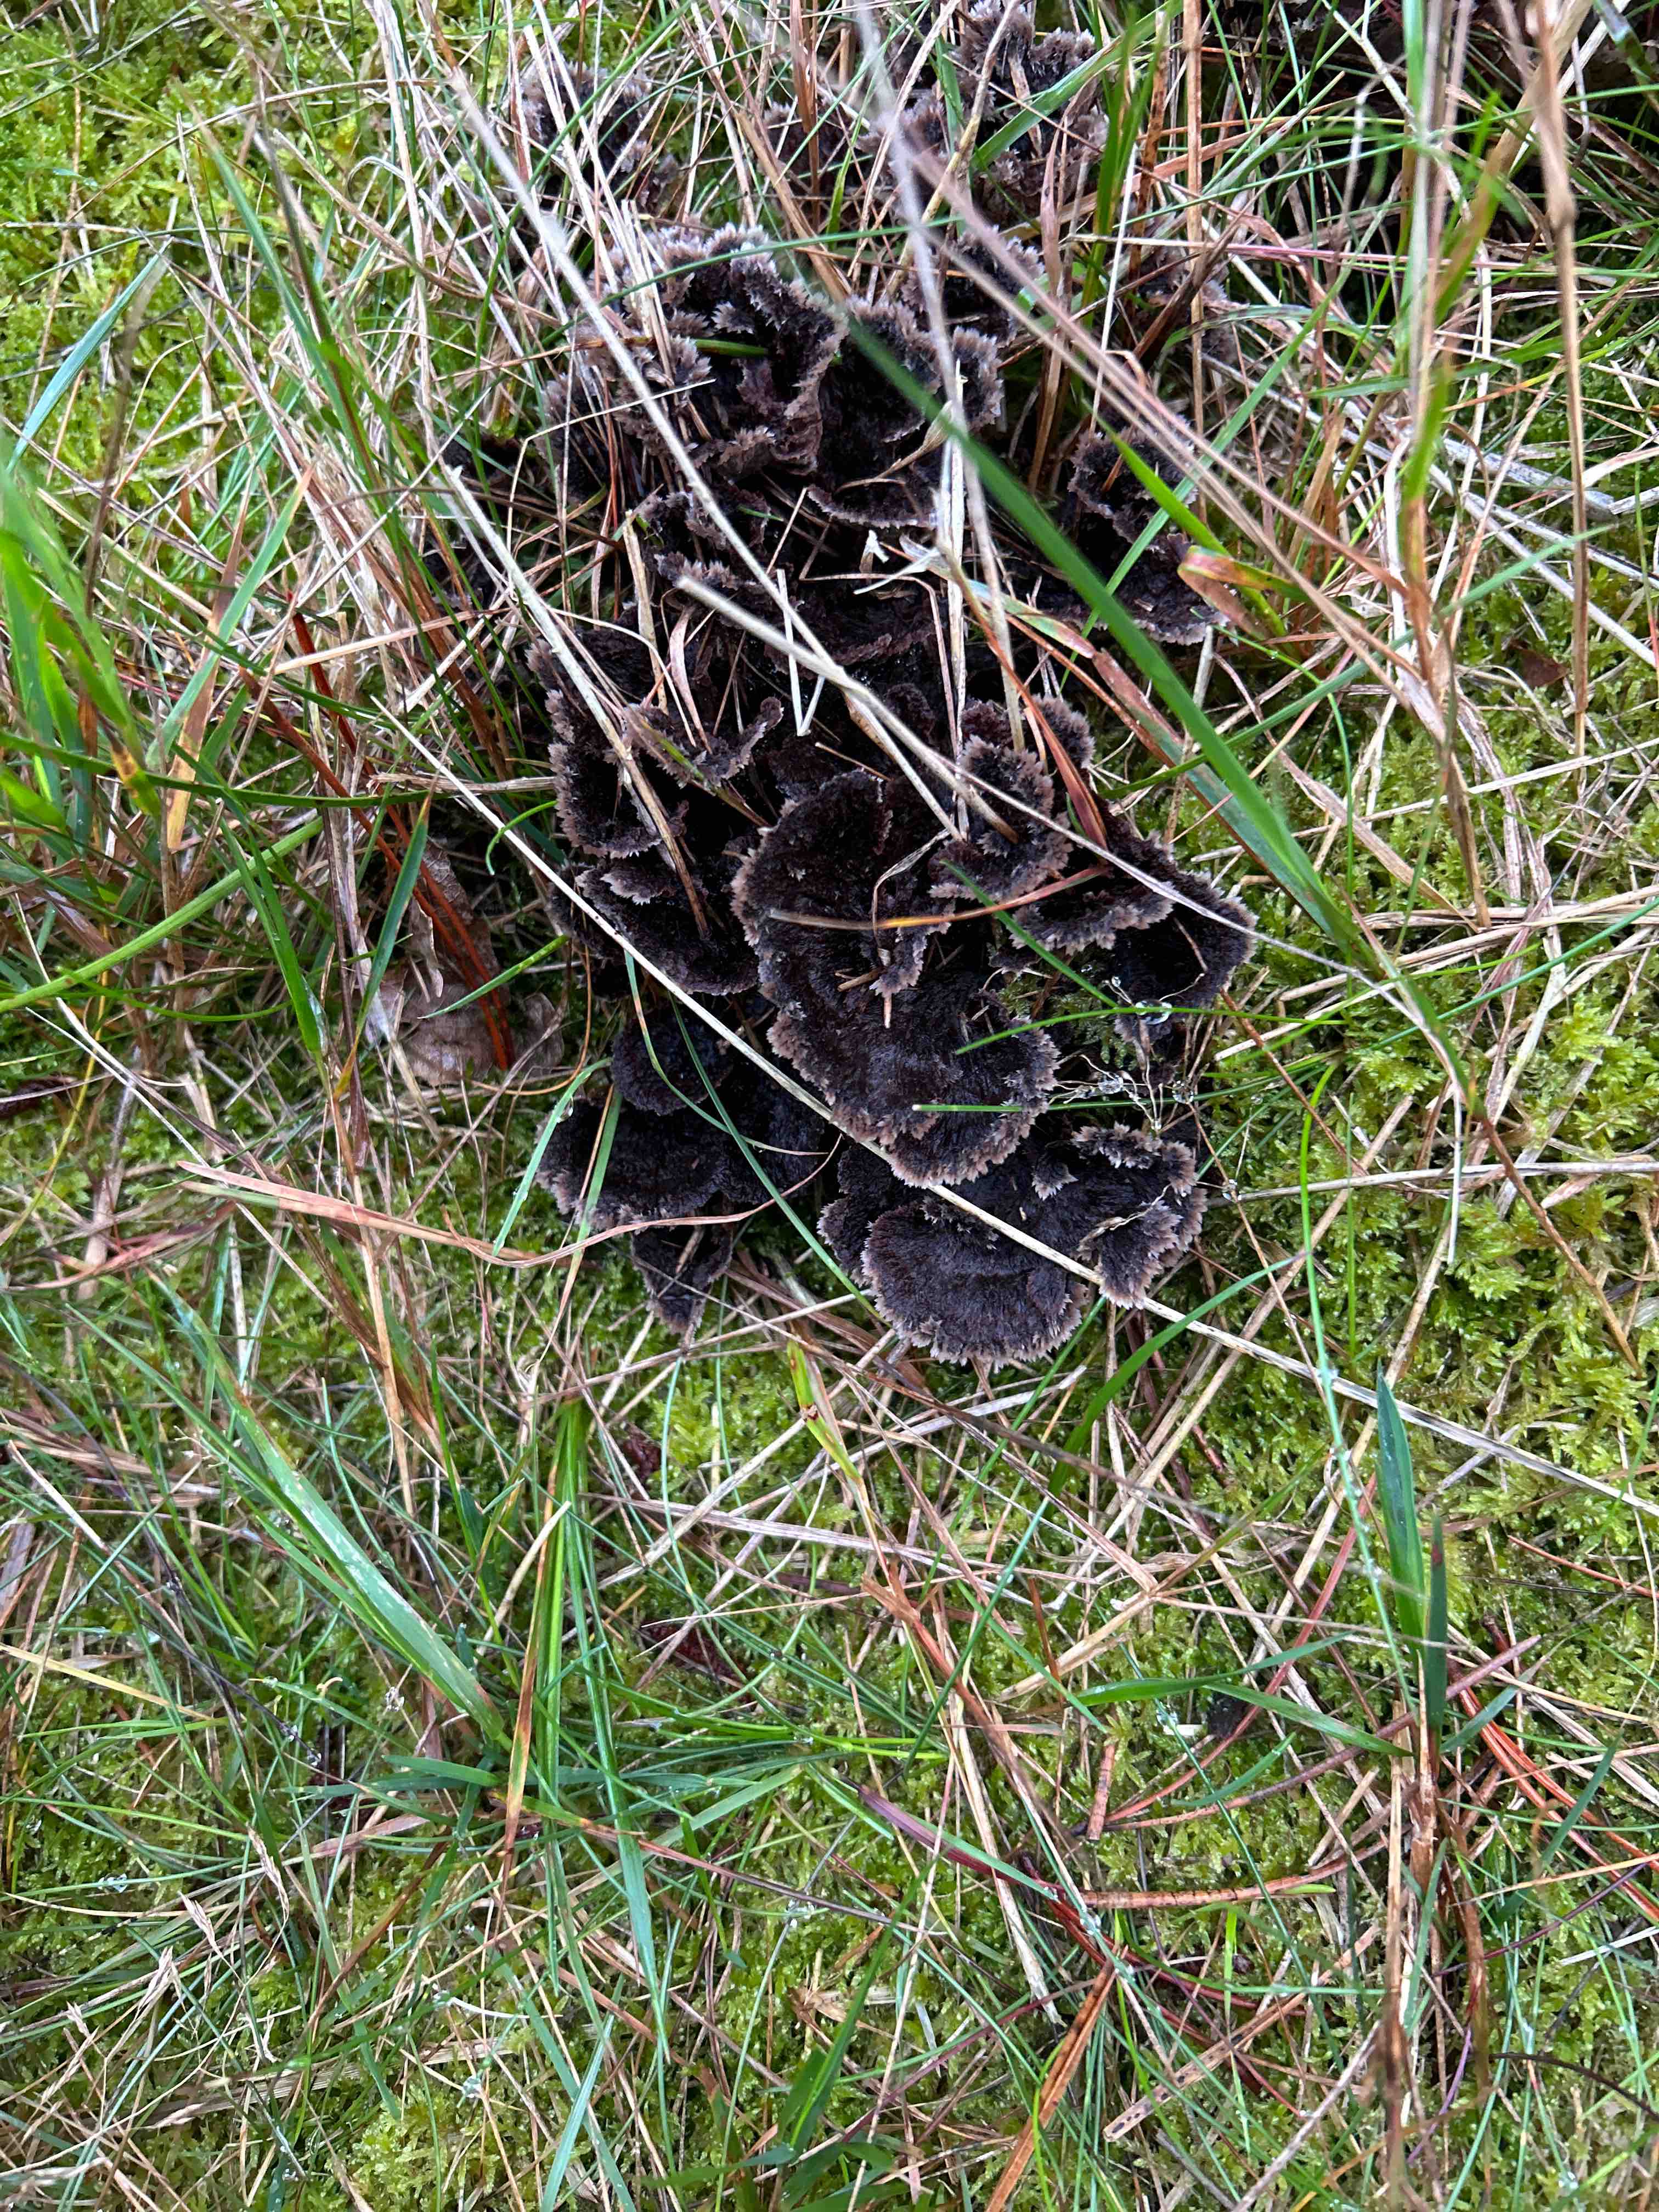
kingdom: Fungi
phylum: Basidiomycota
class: Agaricomycetes
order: Thelephorales
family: Thelephoraceae
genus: Thelephora
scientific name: Thelephora terrestris
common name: fliget frynsesvamp
